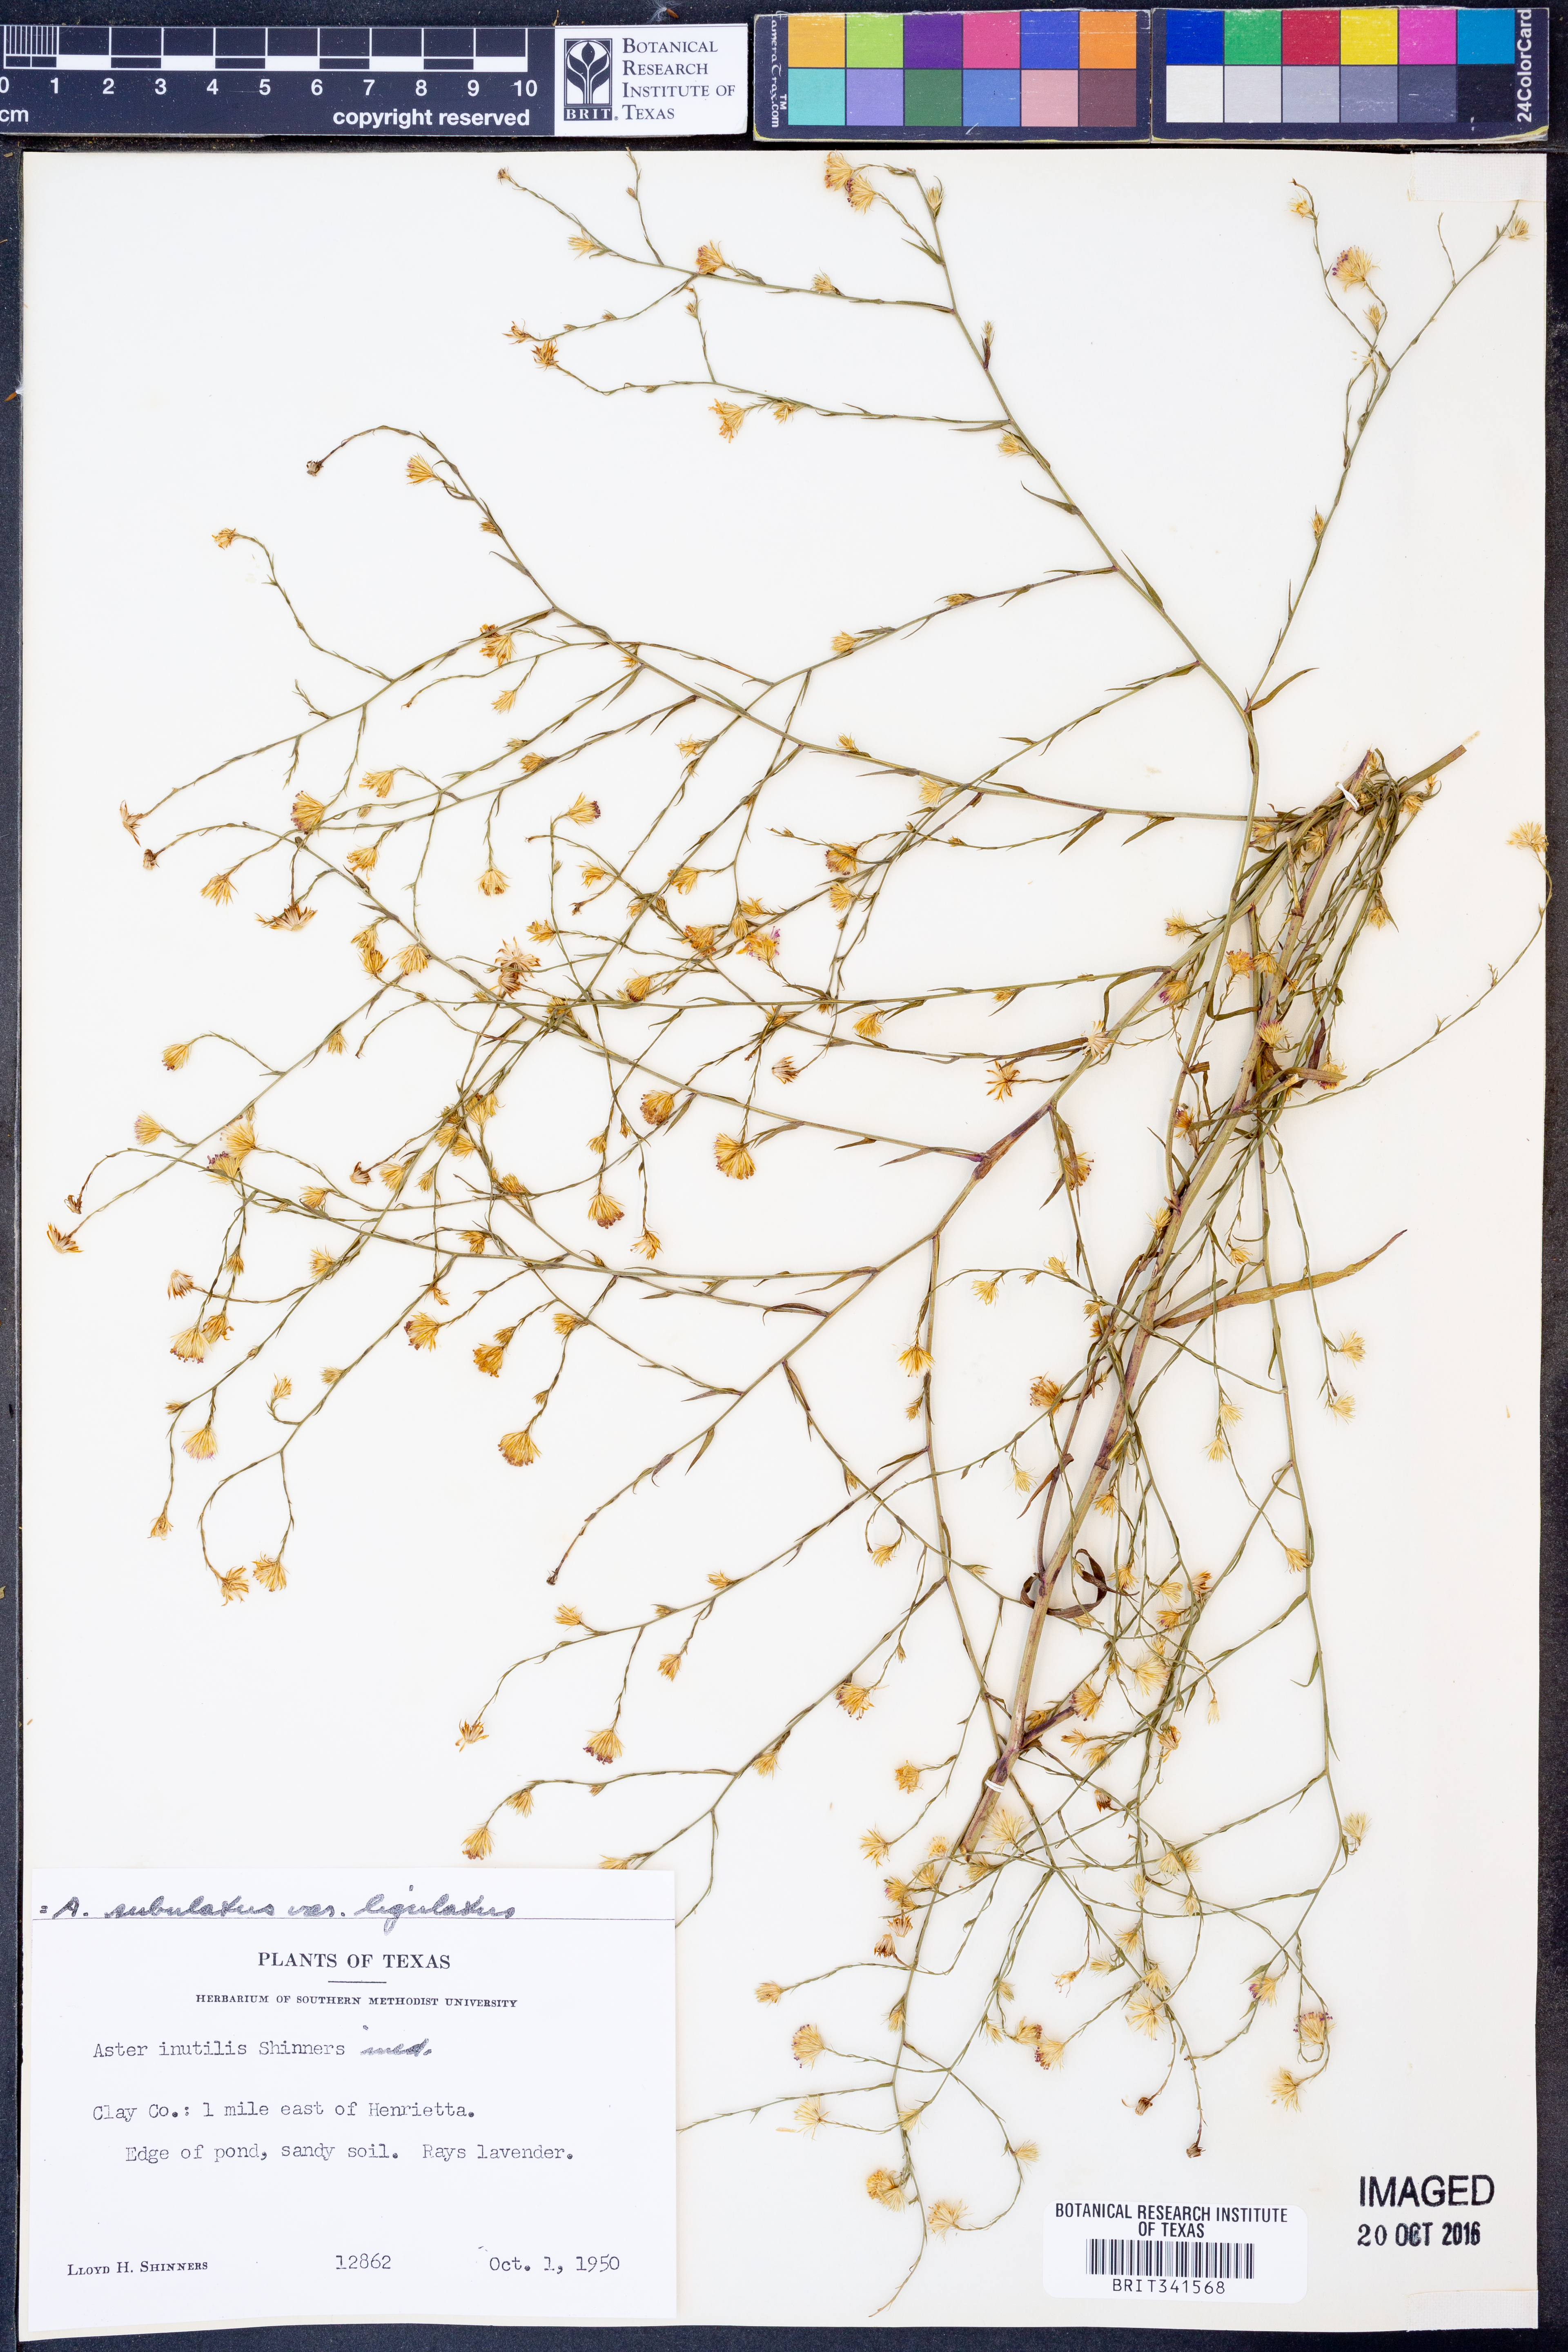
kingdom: Plantae
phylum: Tracheophyta
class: Magnoliopsida
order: Asterales
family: Asteraceae
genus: Symphyotrichum
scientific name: Symphyotrichum divaricatum
